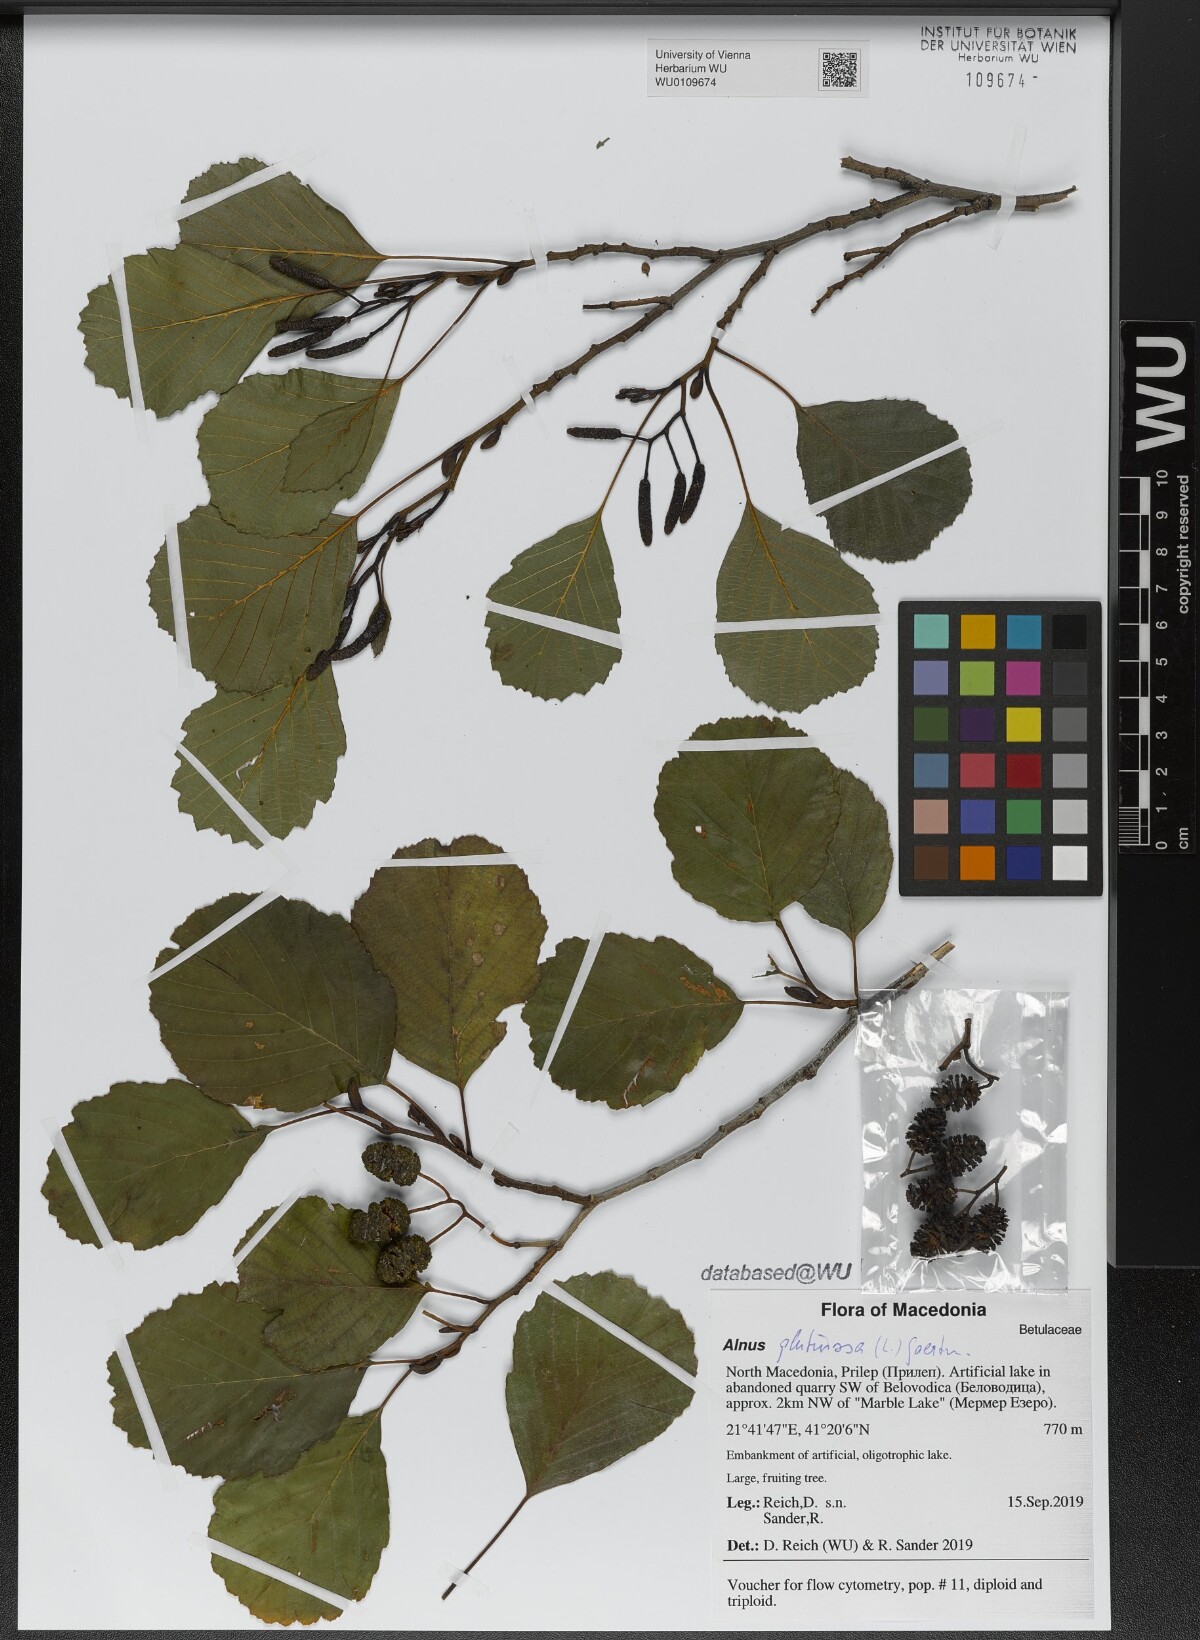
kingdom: Plantae
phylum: Tracheophyta
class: Magnoliopsida
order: Fagales
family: Betulaceae
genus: Alnus
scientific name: Alnus glutinosa
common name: Black alder
